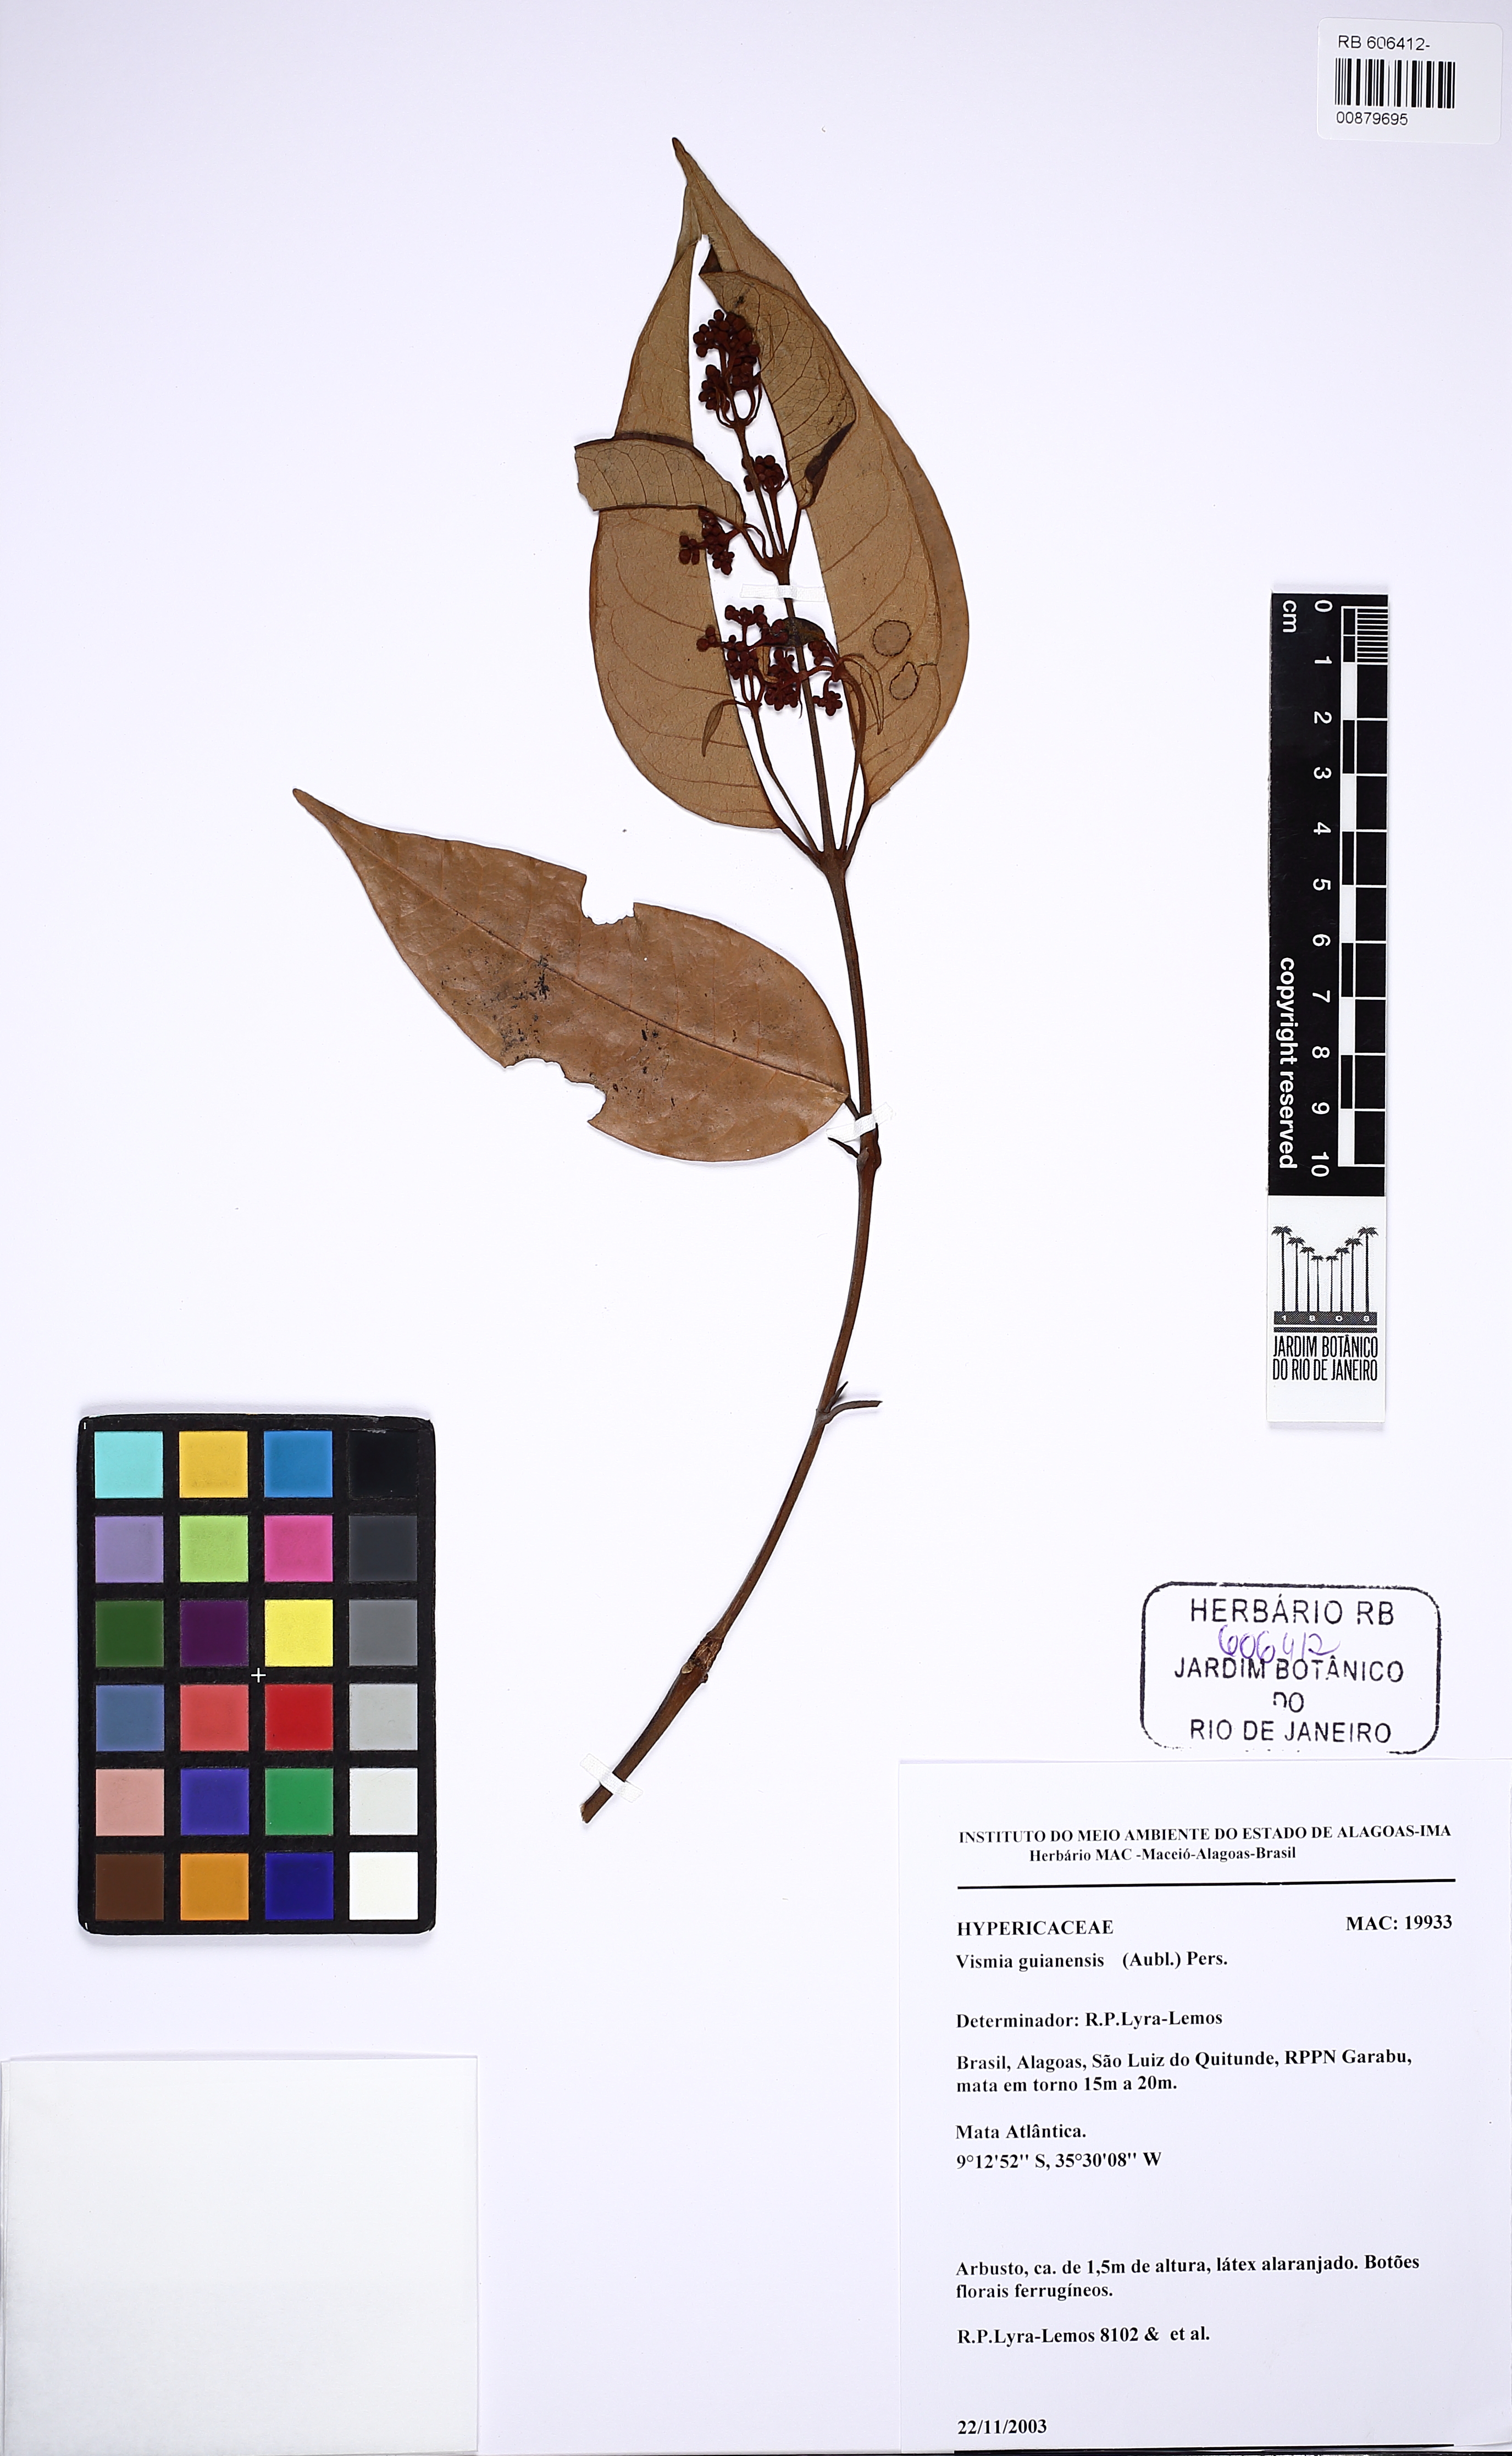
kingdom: Plantae
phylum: Tracheophyta
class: Magnoliopsida
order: Malpighiales
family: Hypericaceae
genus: Vismia
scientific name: Vismia guianensis
